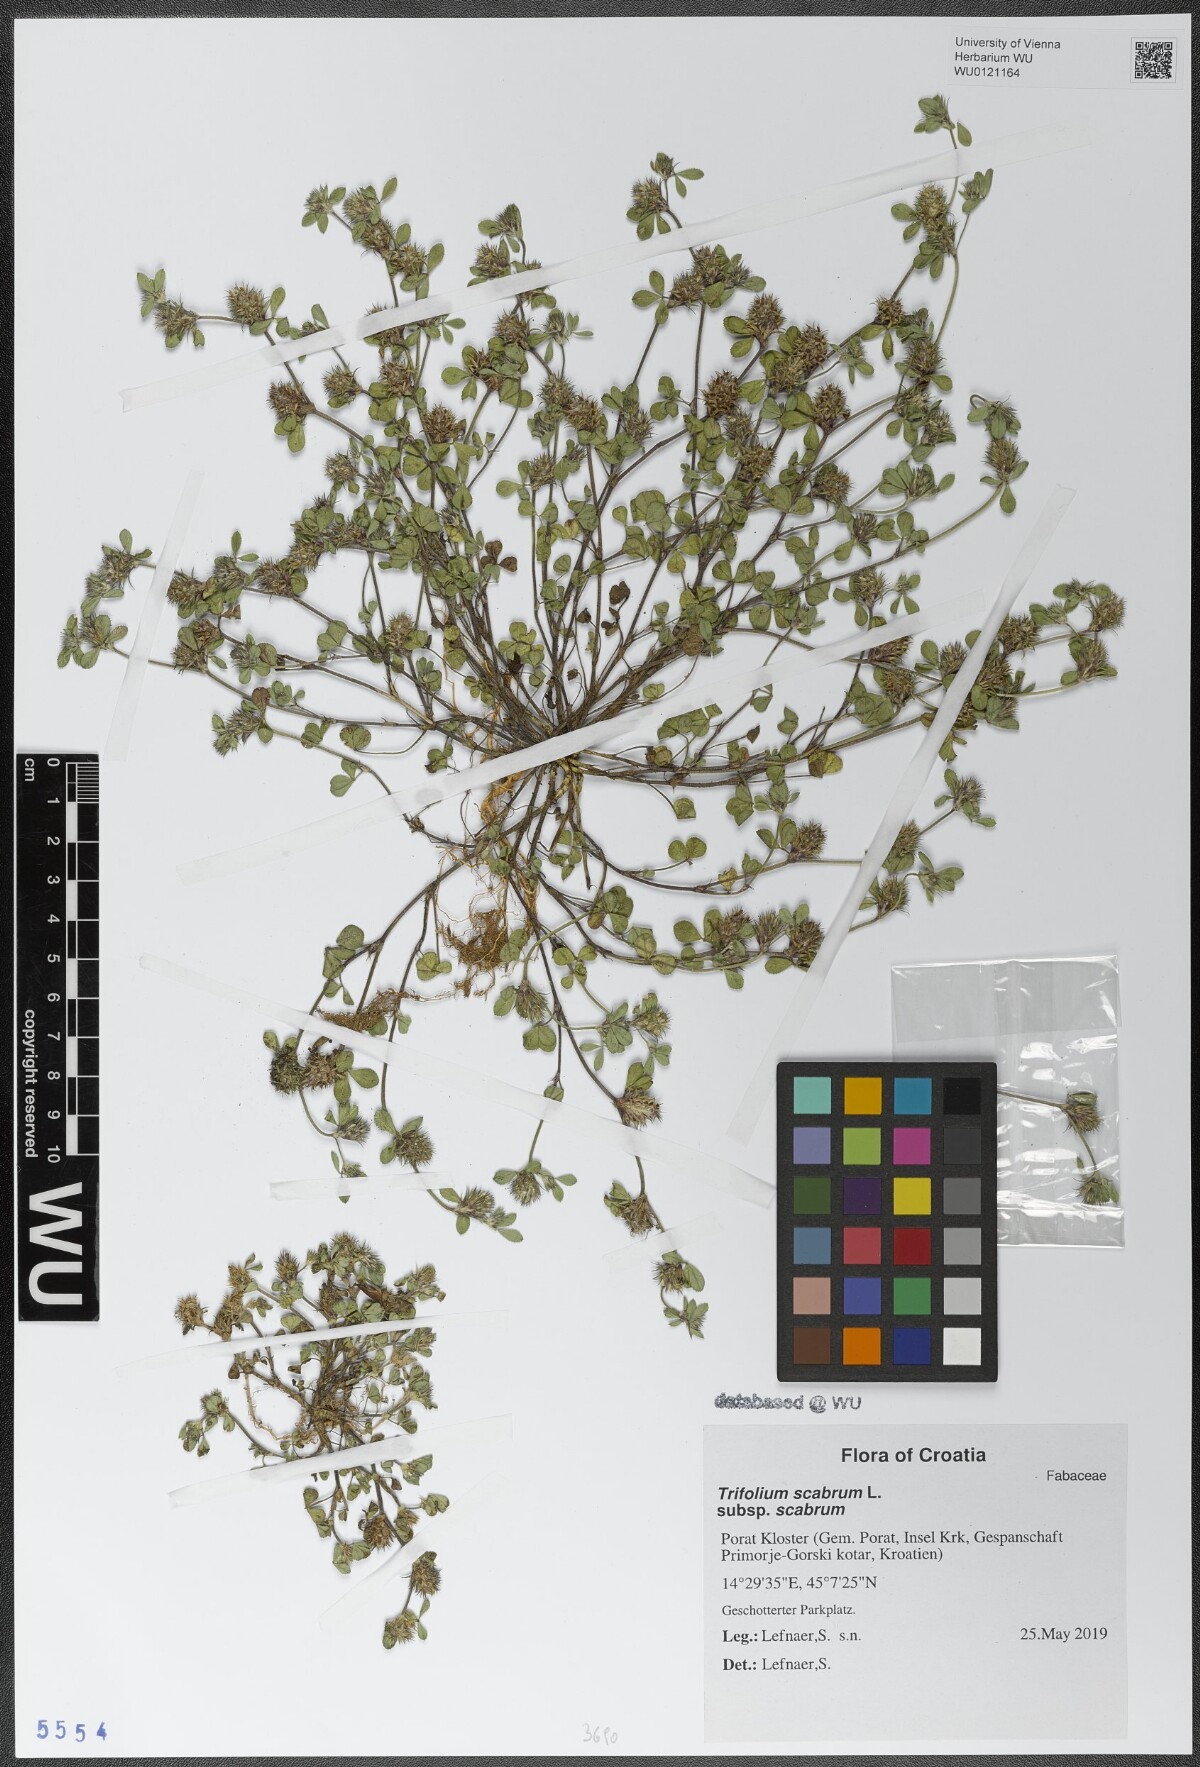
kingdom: Plantae
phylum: Tracheophyta
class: Magnoliopsida
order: Fabales
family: Fabaceae
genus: Trifolium
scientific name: Trifolium scabrum
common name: Rough clover
